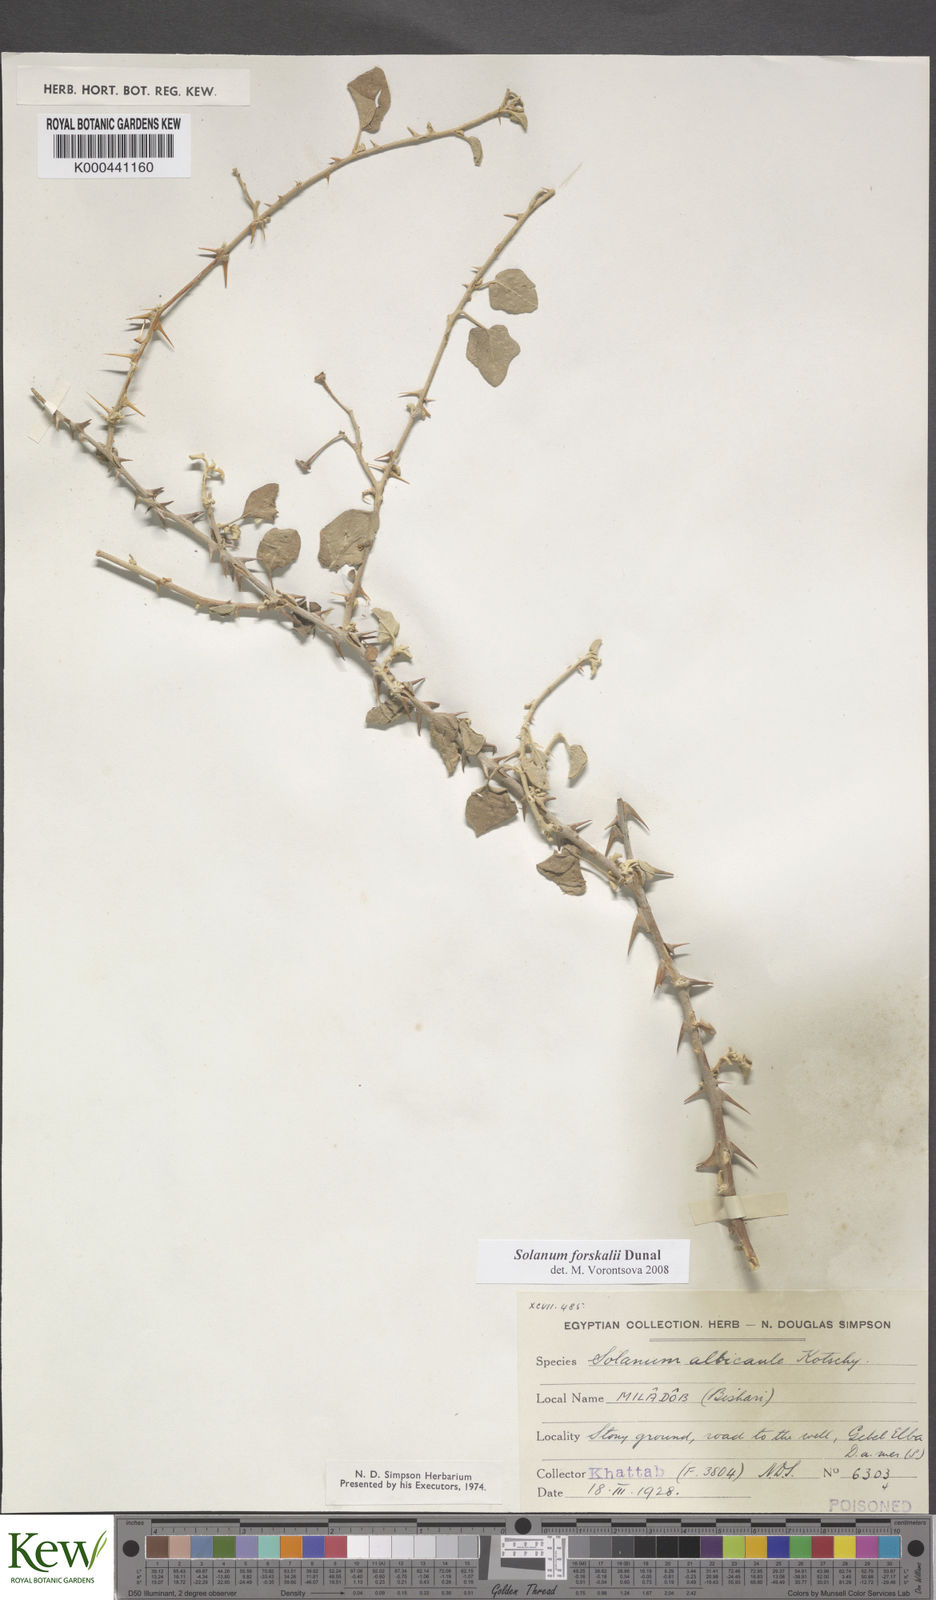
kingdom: Plantae
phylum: Tracheophyta
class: Magnoliopsida
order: Solanales
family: Solanaceae
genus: Solanum
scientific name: Solanum
